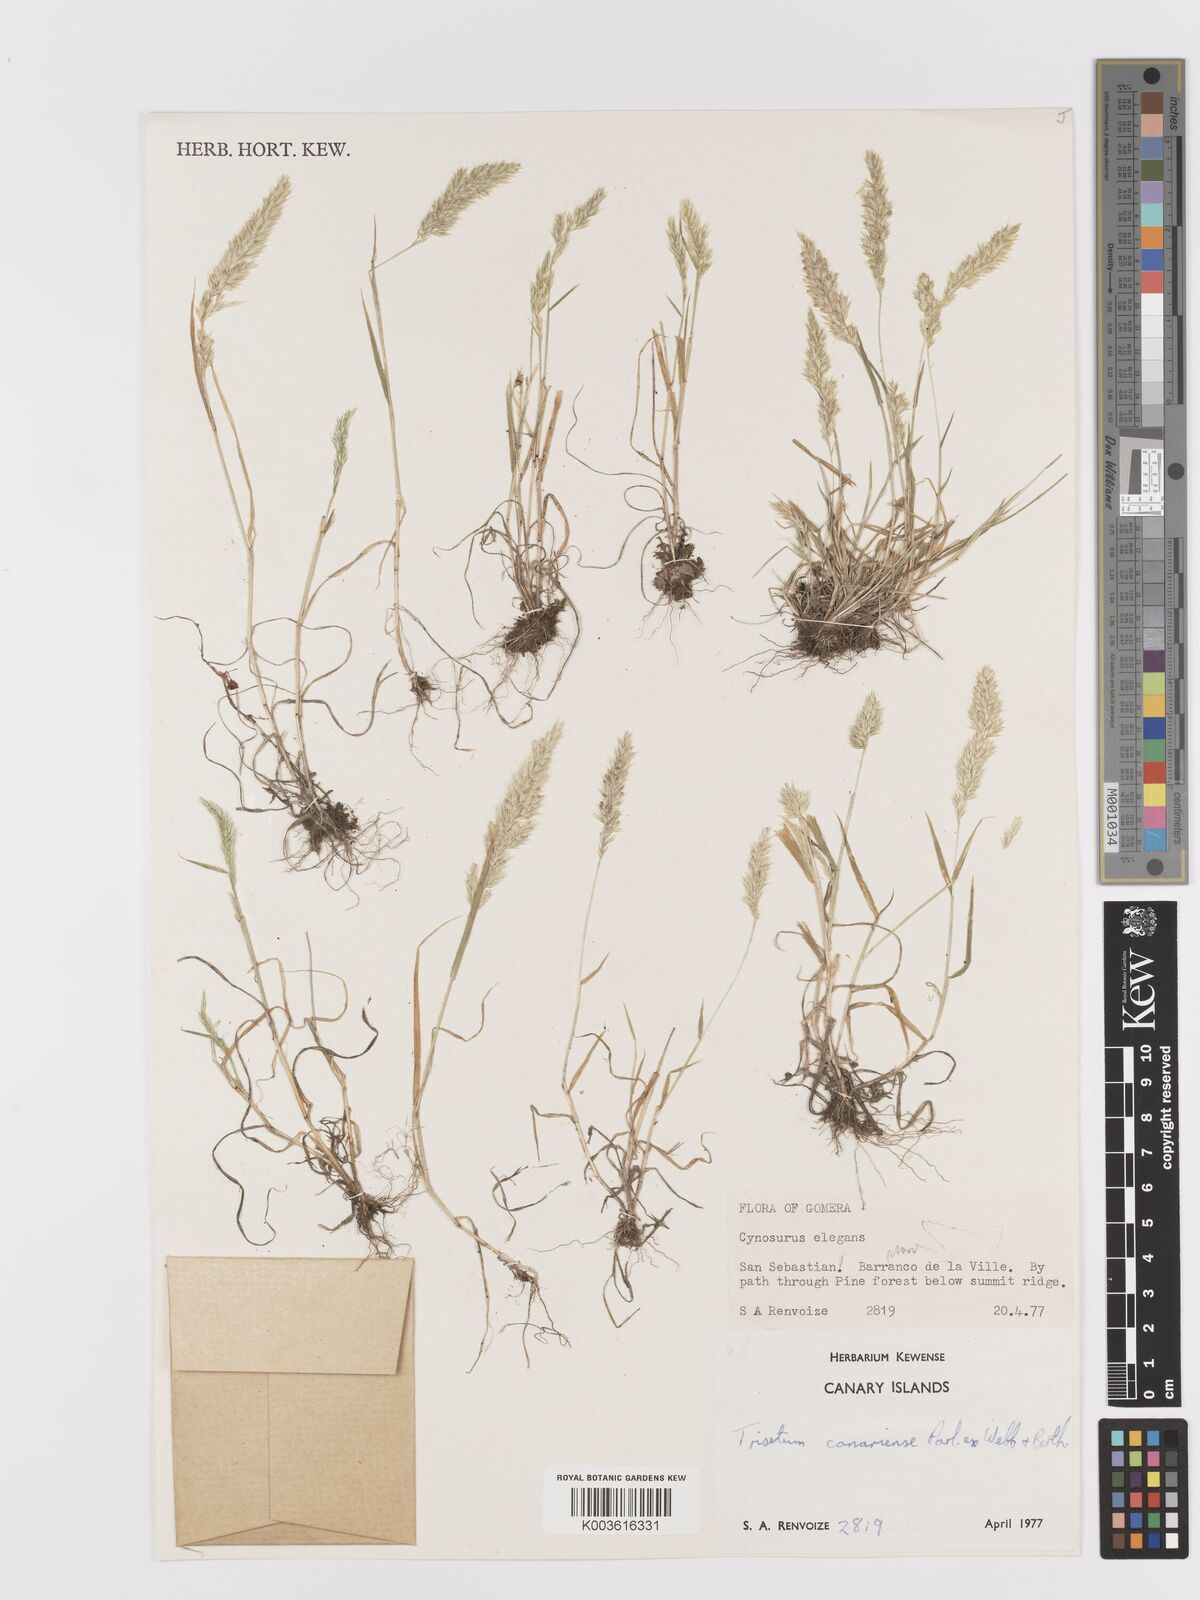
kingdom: Plantae
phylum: Tracheophyta
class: Liliopsida
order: Poales
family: Poaceae
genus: Trisetaria
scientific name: Trisetaria panicea
